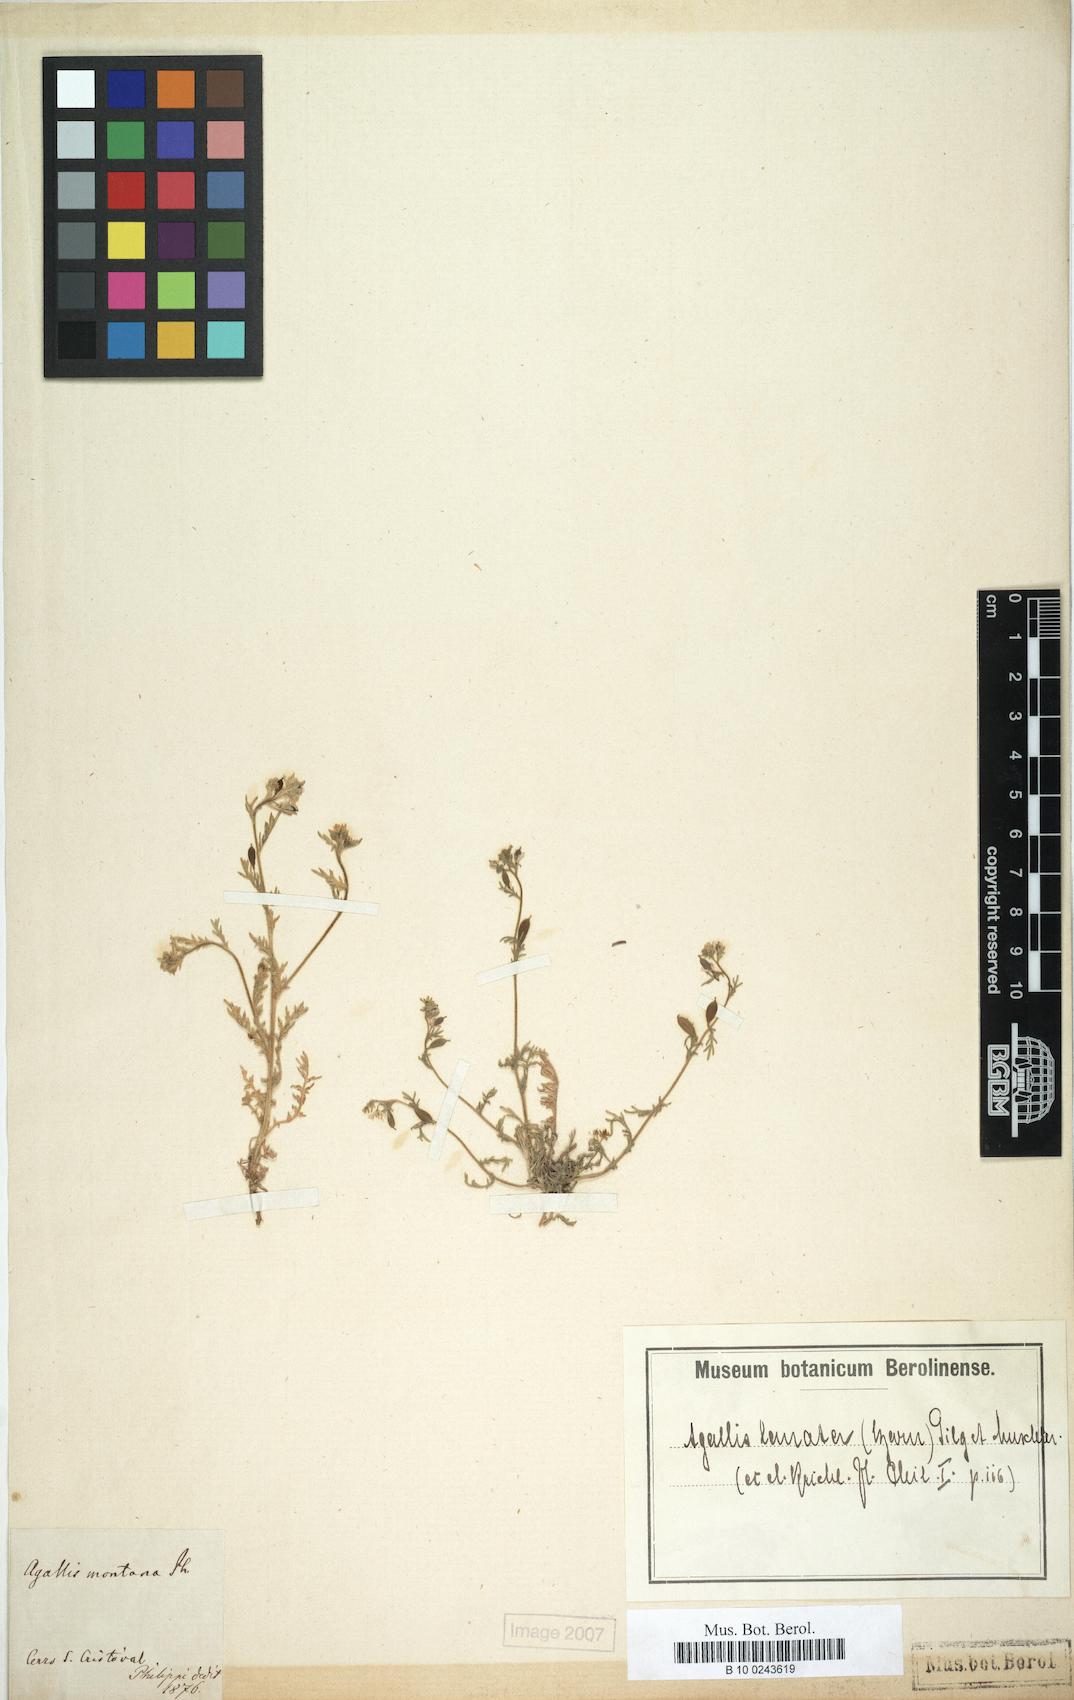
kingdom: Plantae
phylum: Tracheophyta
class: Magnoliopsida
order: Brassicales
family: Brassicaceae
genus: Tropidocarpum
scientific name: Tropidocarpum lanatum
